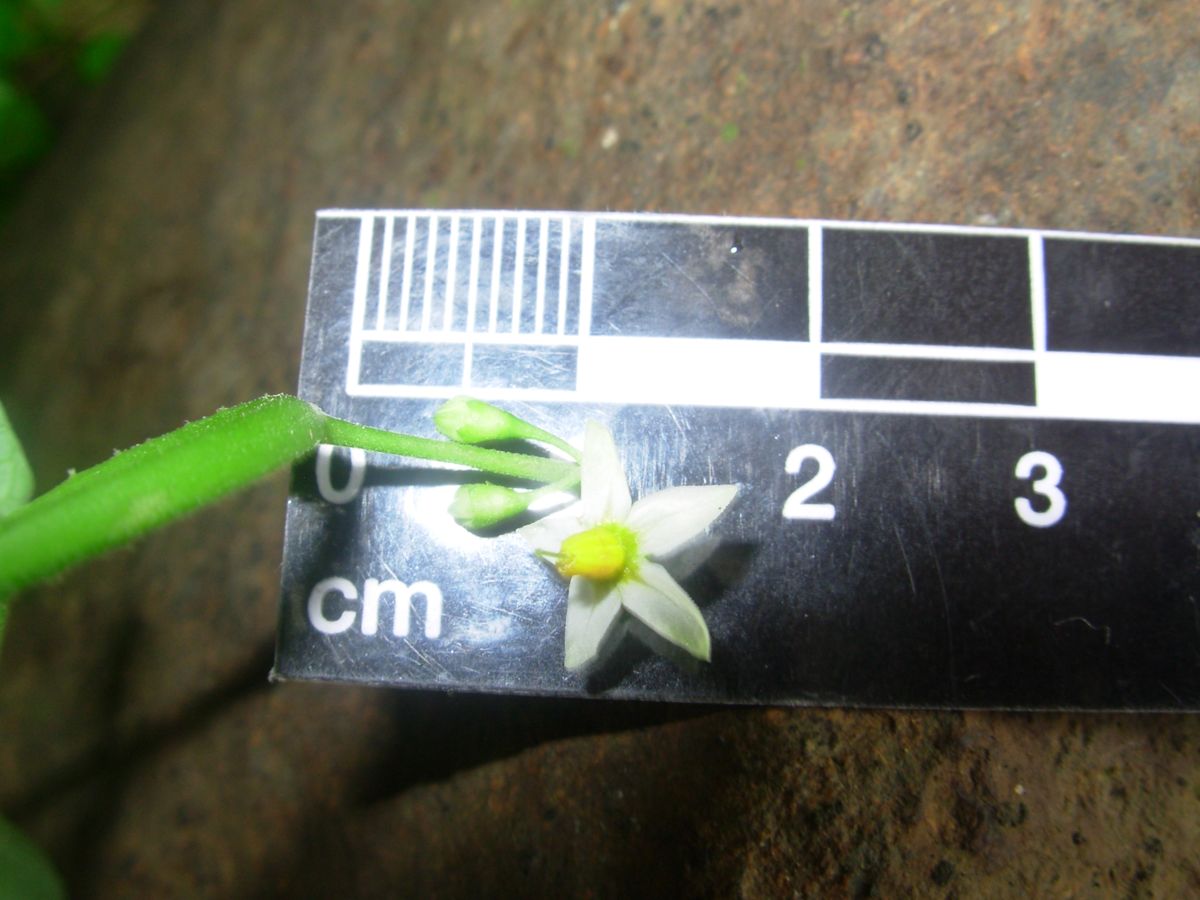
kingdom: Plantae
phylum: Tracheophyta
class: Magnoliopsida
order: Solanales
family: Solanaceae
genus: Solanum
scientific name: Solanum nigrescens
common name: Divine nightshade
